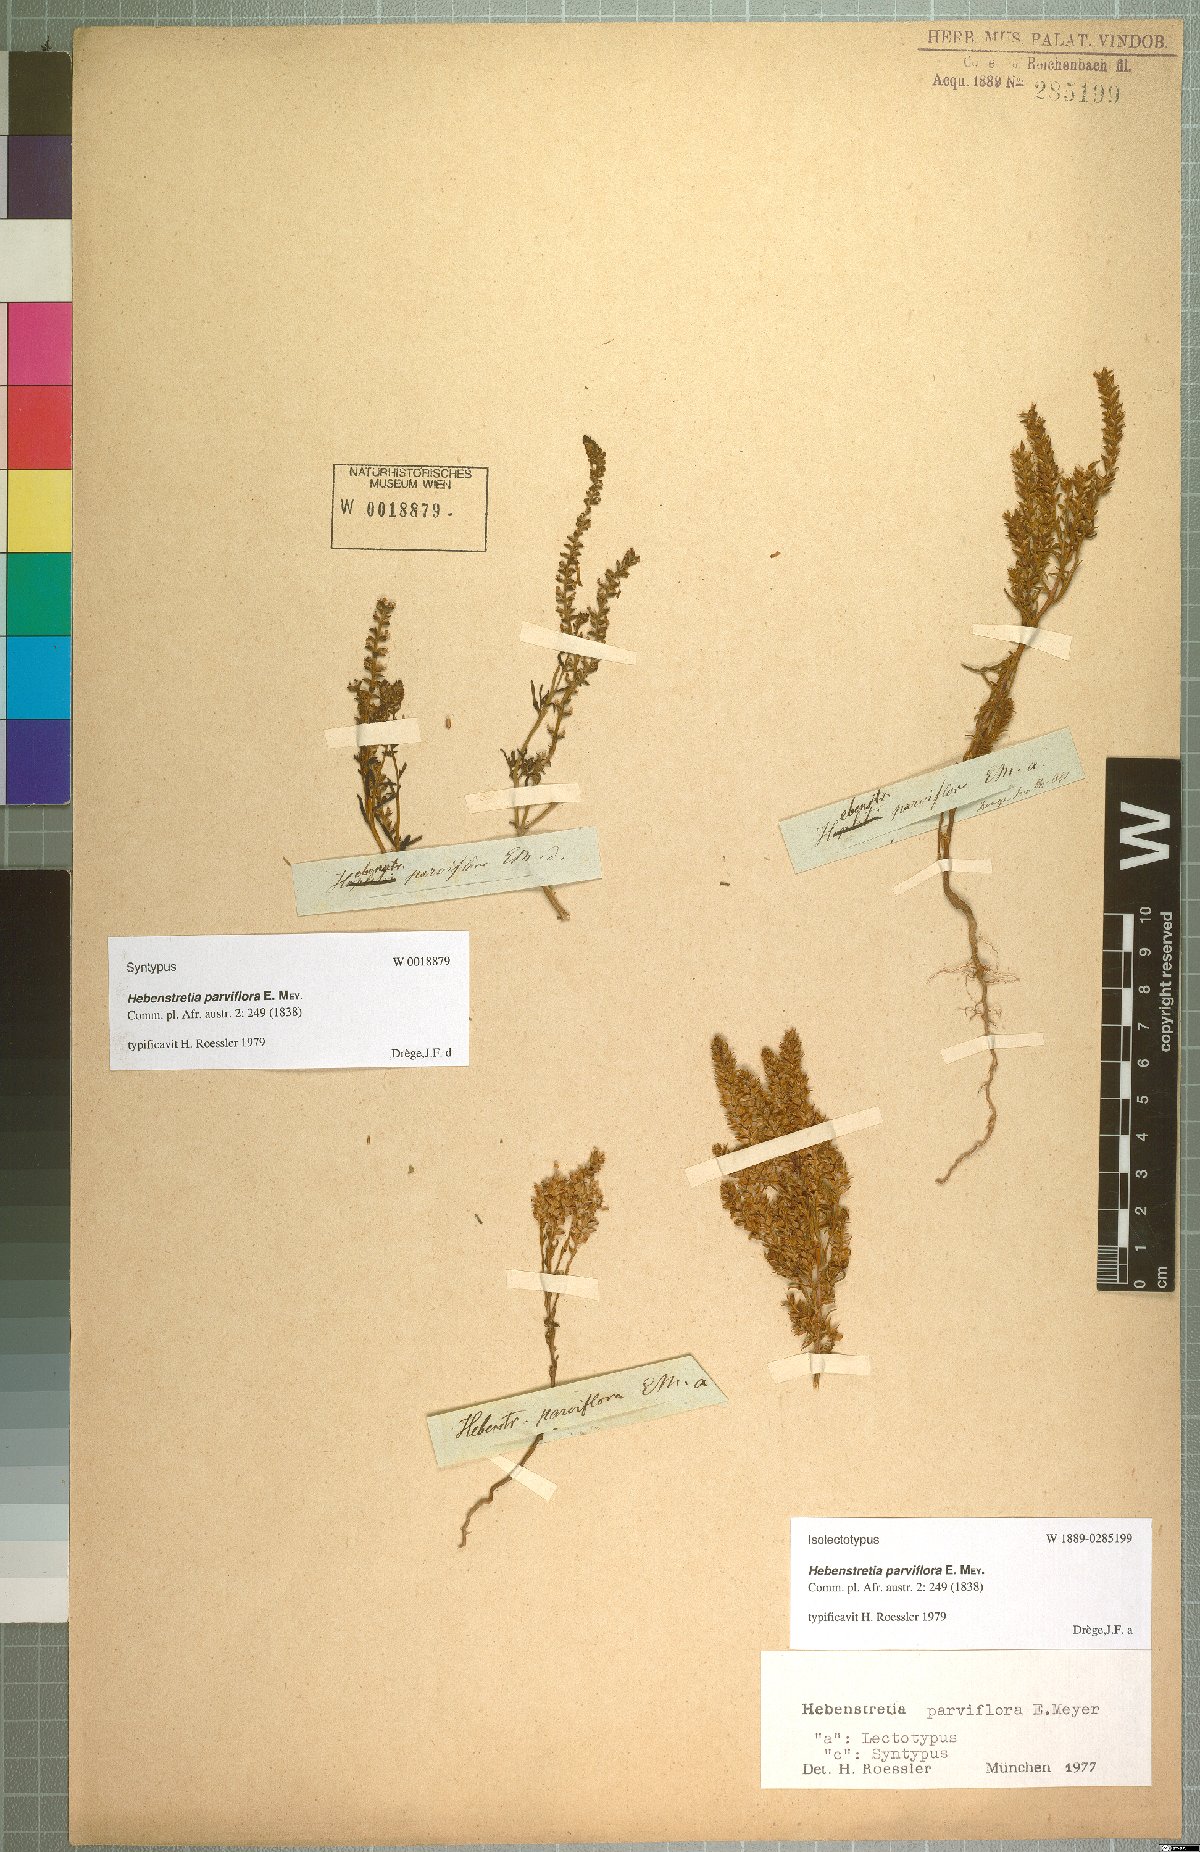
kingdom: Plantae
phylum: Tracheophyta
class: Magnoliopsida
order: Lamiales
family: Scrophulariaceae
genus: Hebenstretia
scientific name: Hebenstretia parviflora
